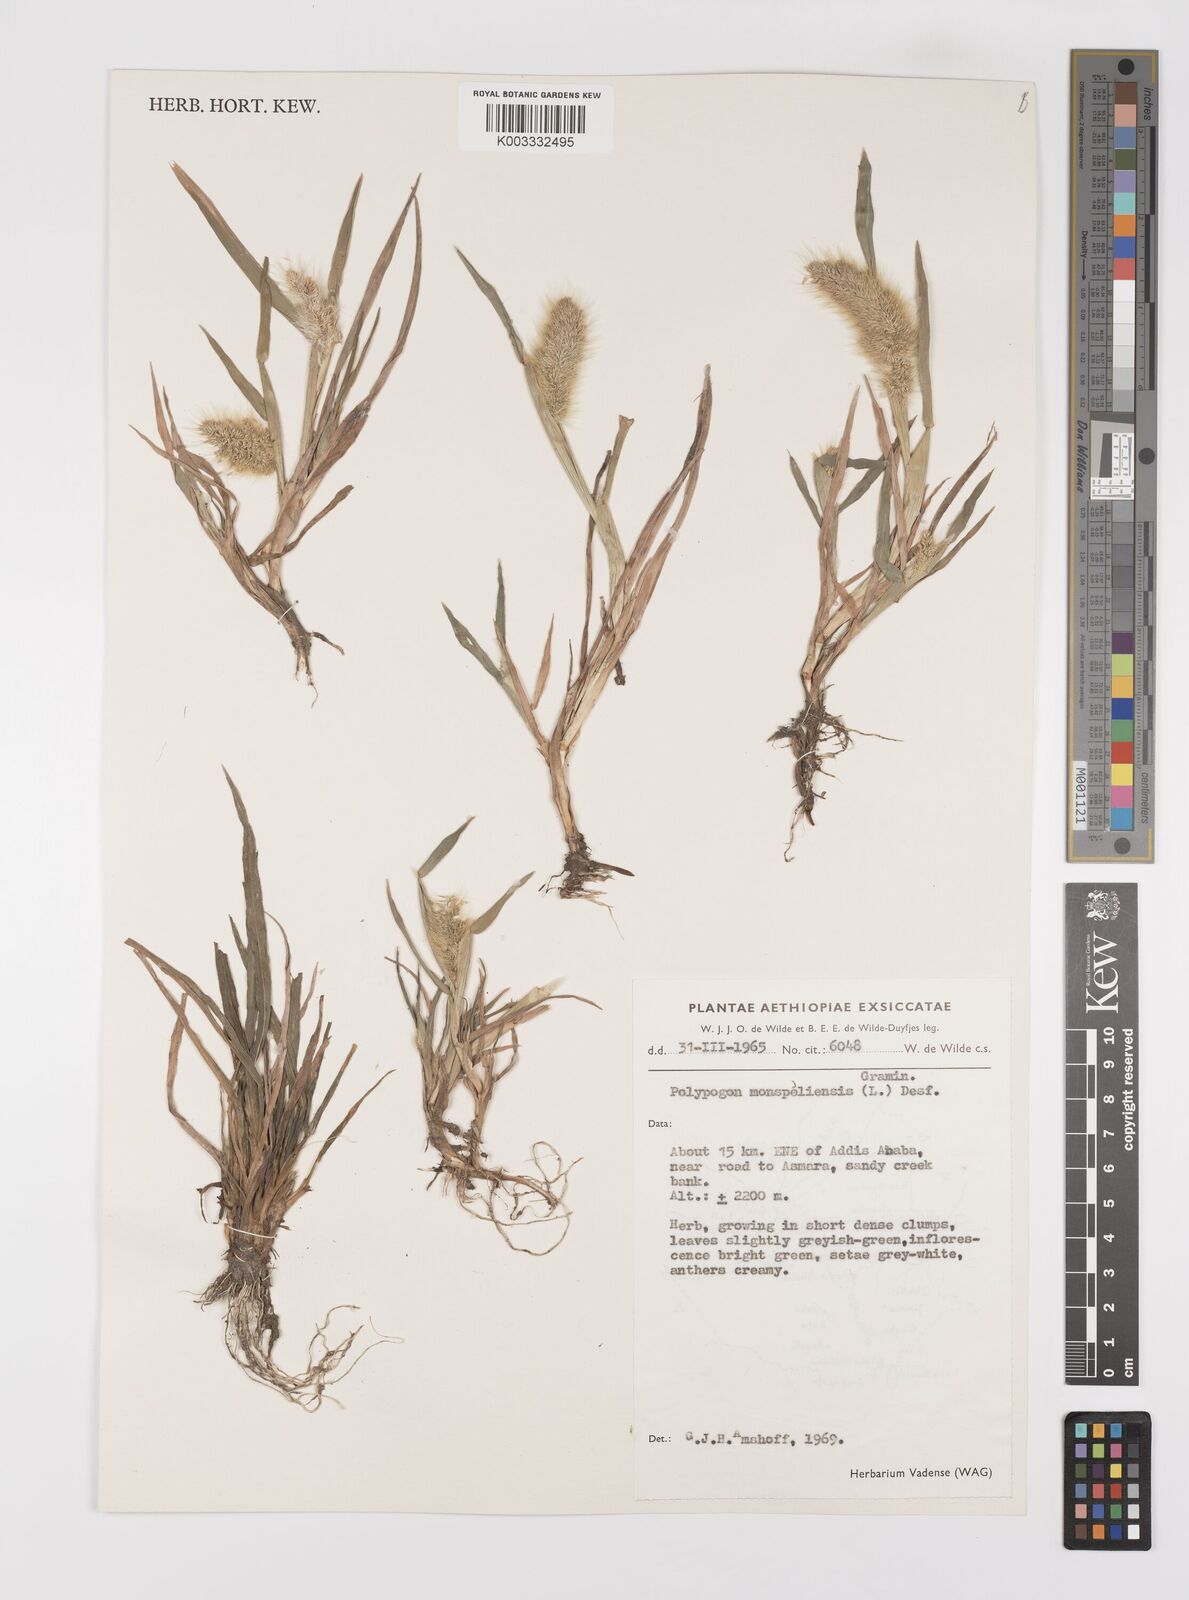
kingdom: Plantae
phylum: Tracheophyta
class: Liliopsida
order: Poales
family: Poaceae
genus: Polypogon
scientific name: Polypogon monspeliensis
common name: Annual rabbitsfoot grass
